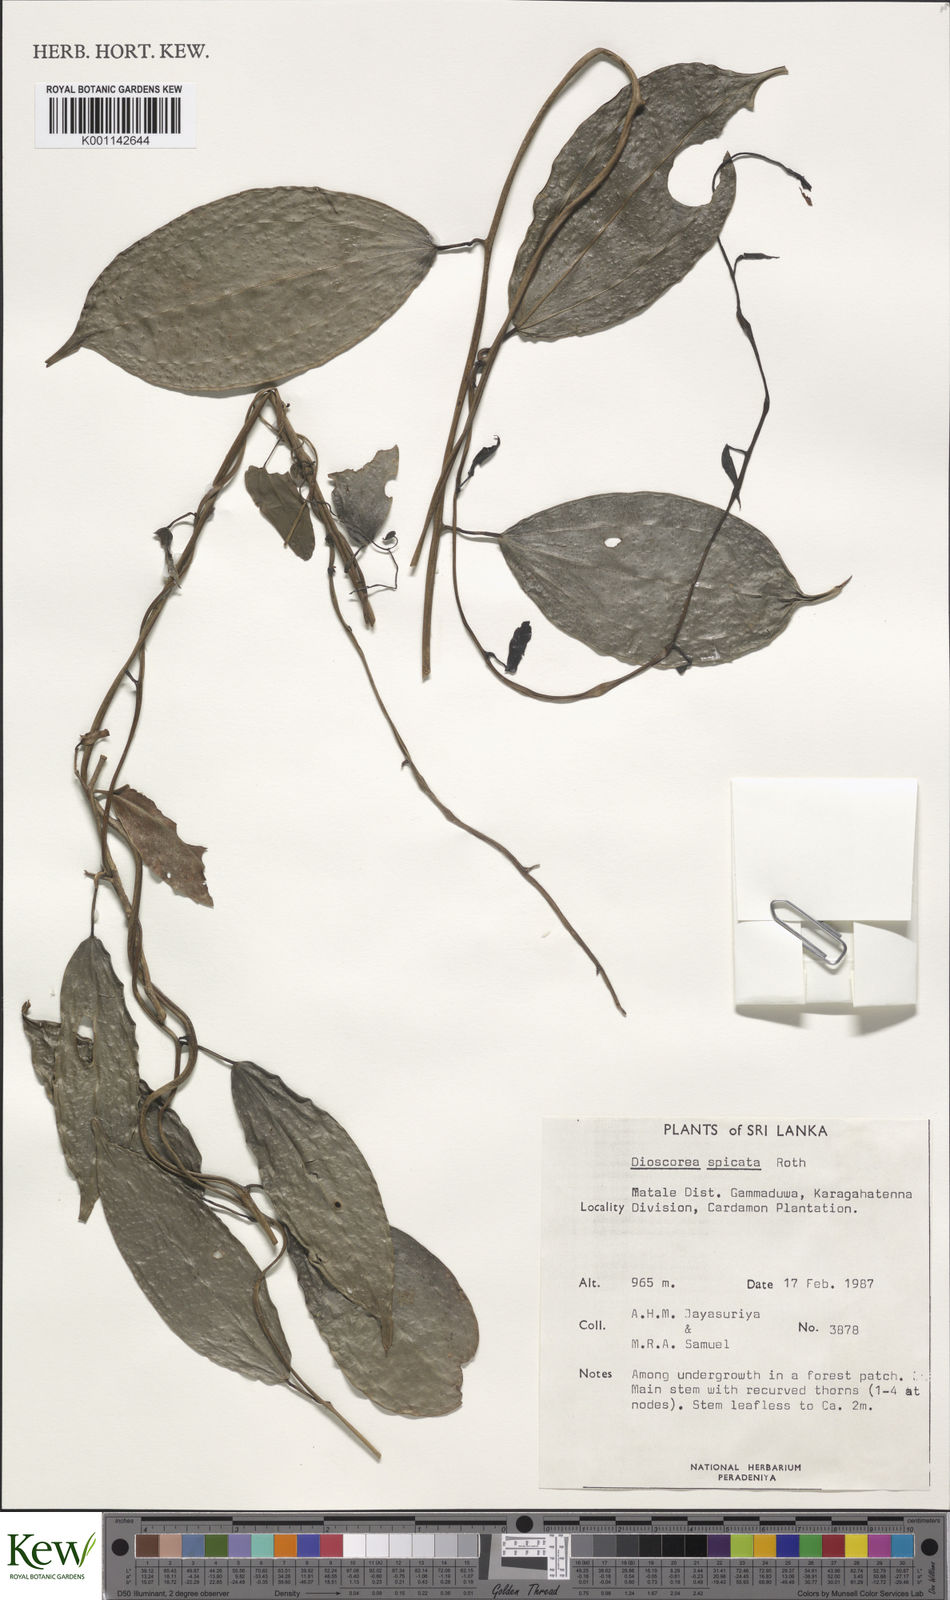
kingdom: Plantae
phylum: Tracheophyta
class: Liliopsida
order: Dioscoreales
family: Dioscoreaceae
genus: Dioscorea
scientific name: Dioscorea spicata
